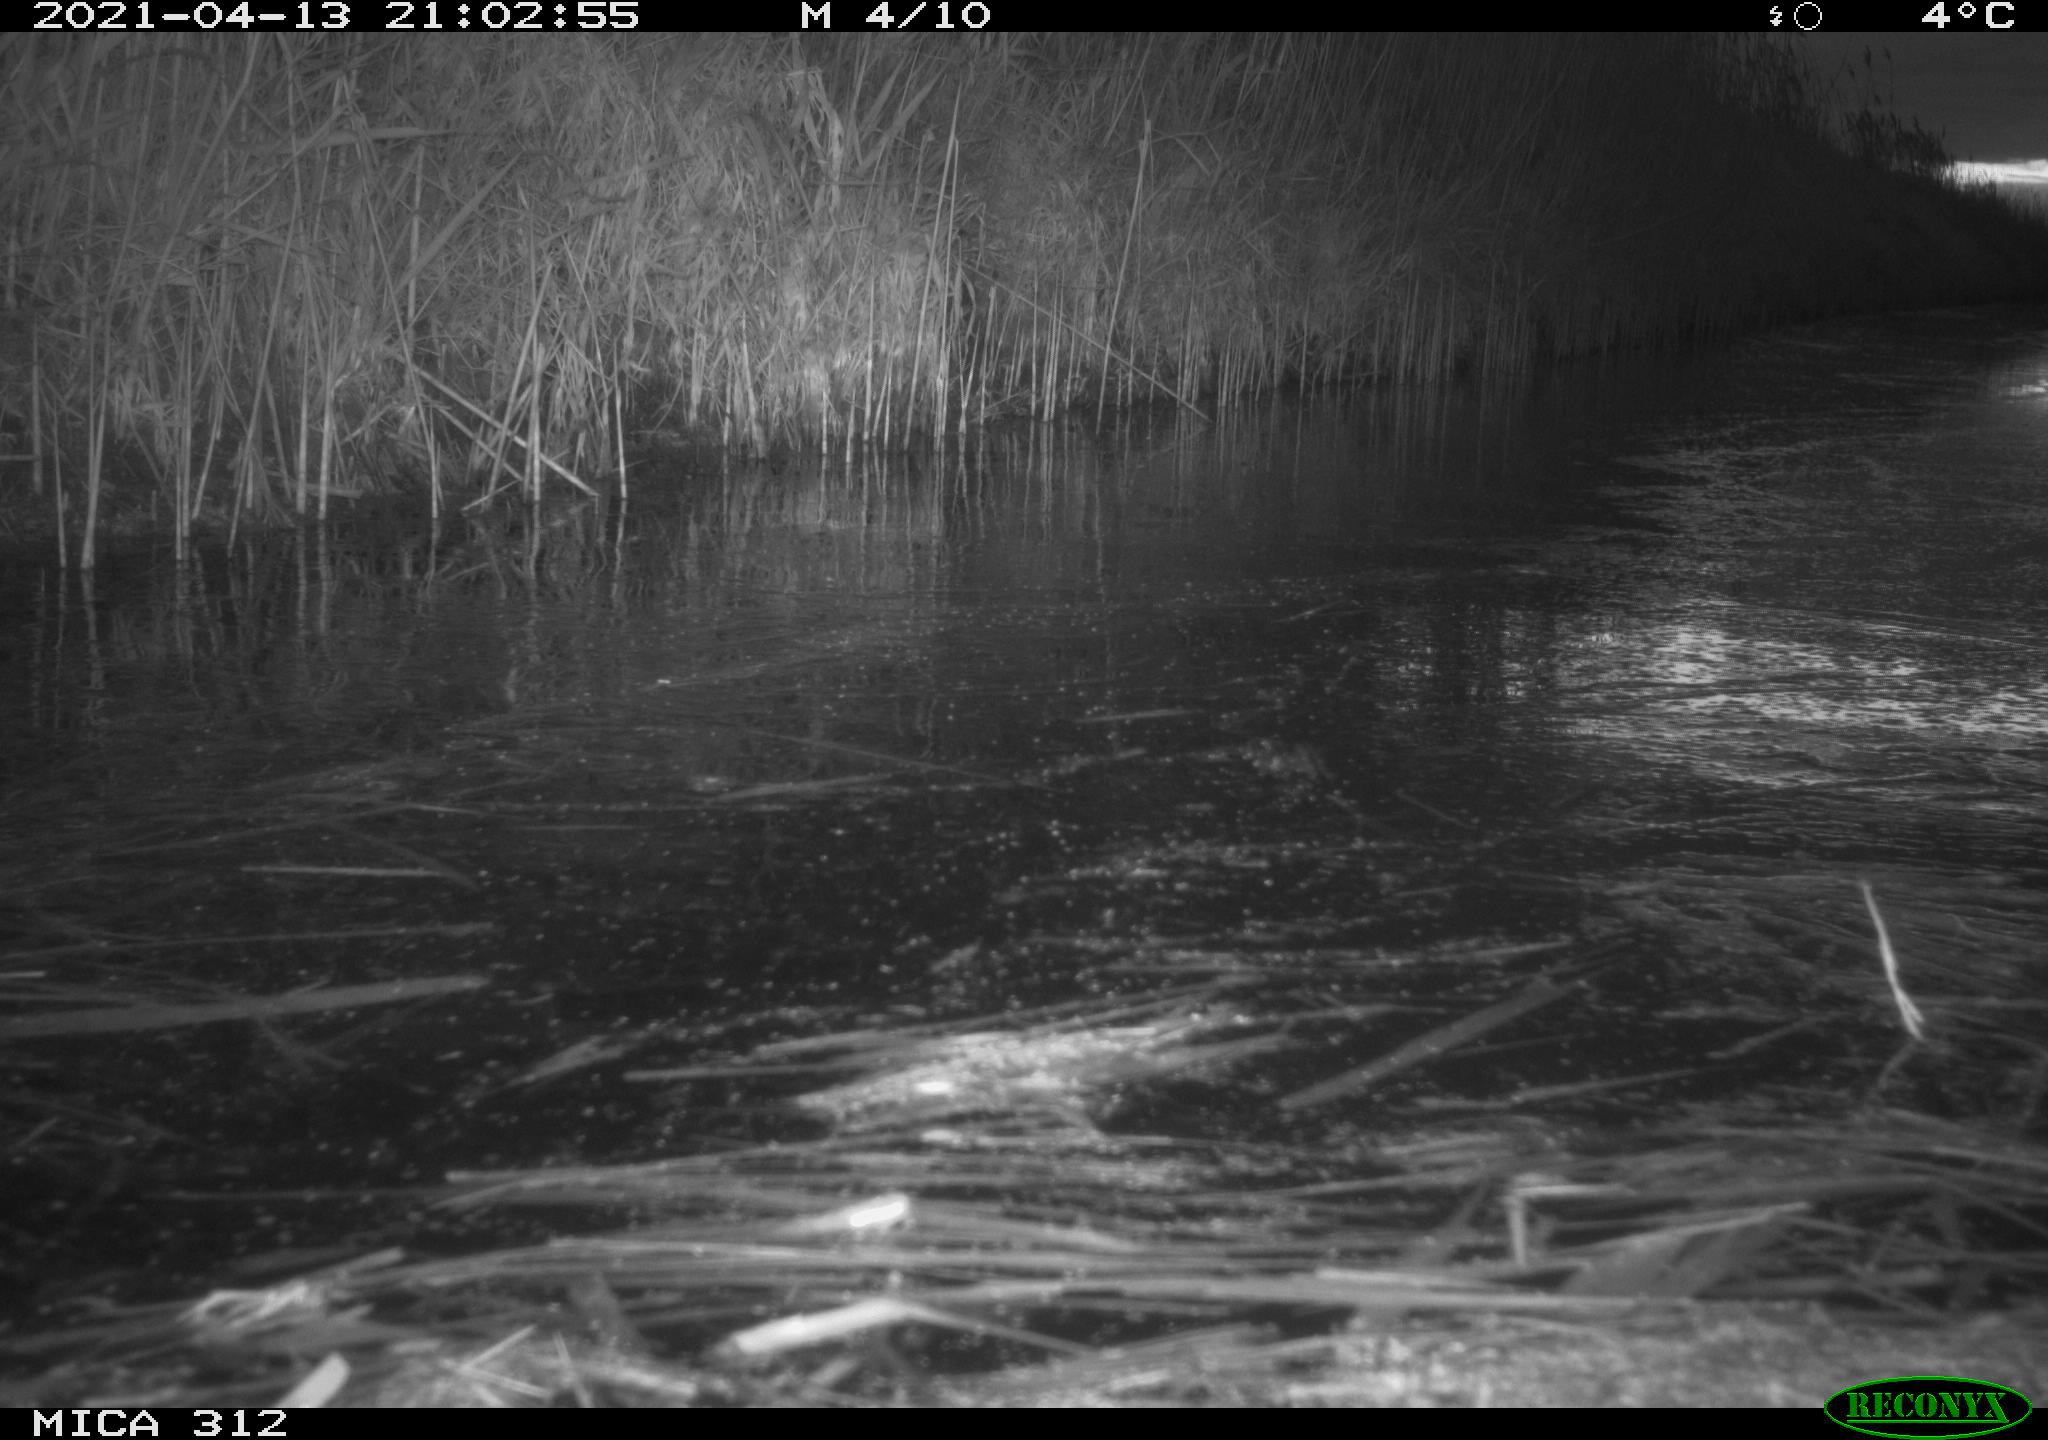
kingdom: Animalia
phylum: Chordata
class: Mammalia
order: Rodentia
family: Muridae
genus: Rattus
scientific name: Rattus norvegicus
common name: Brown rat
